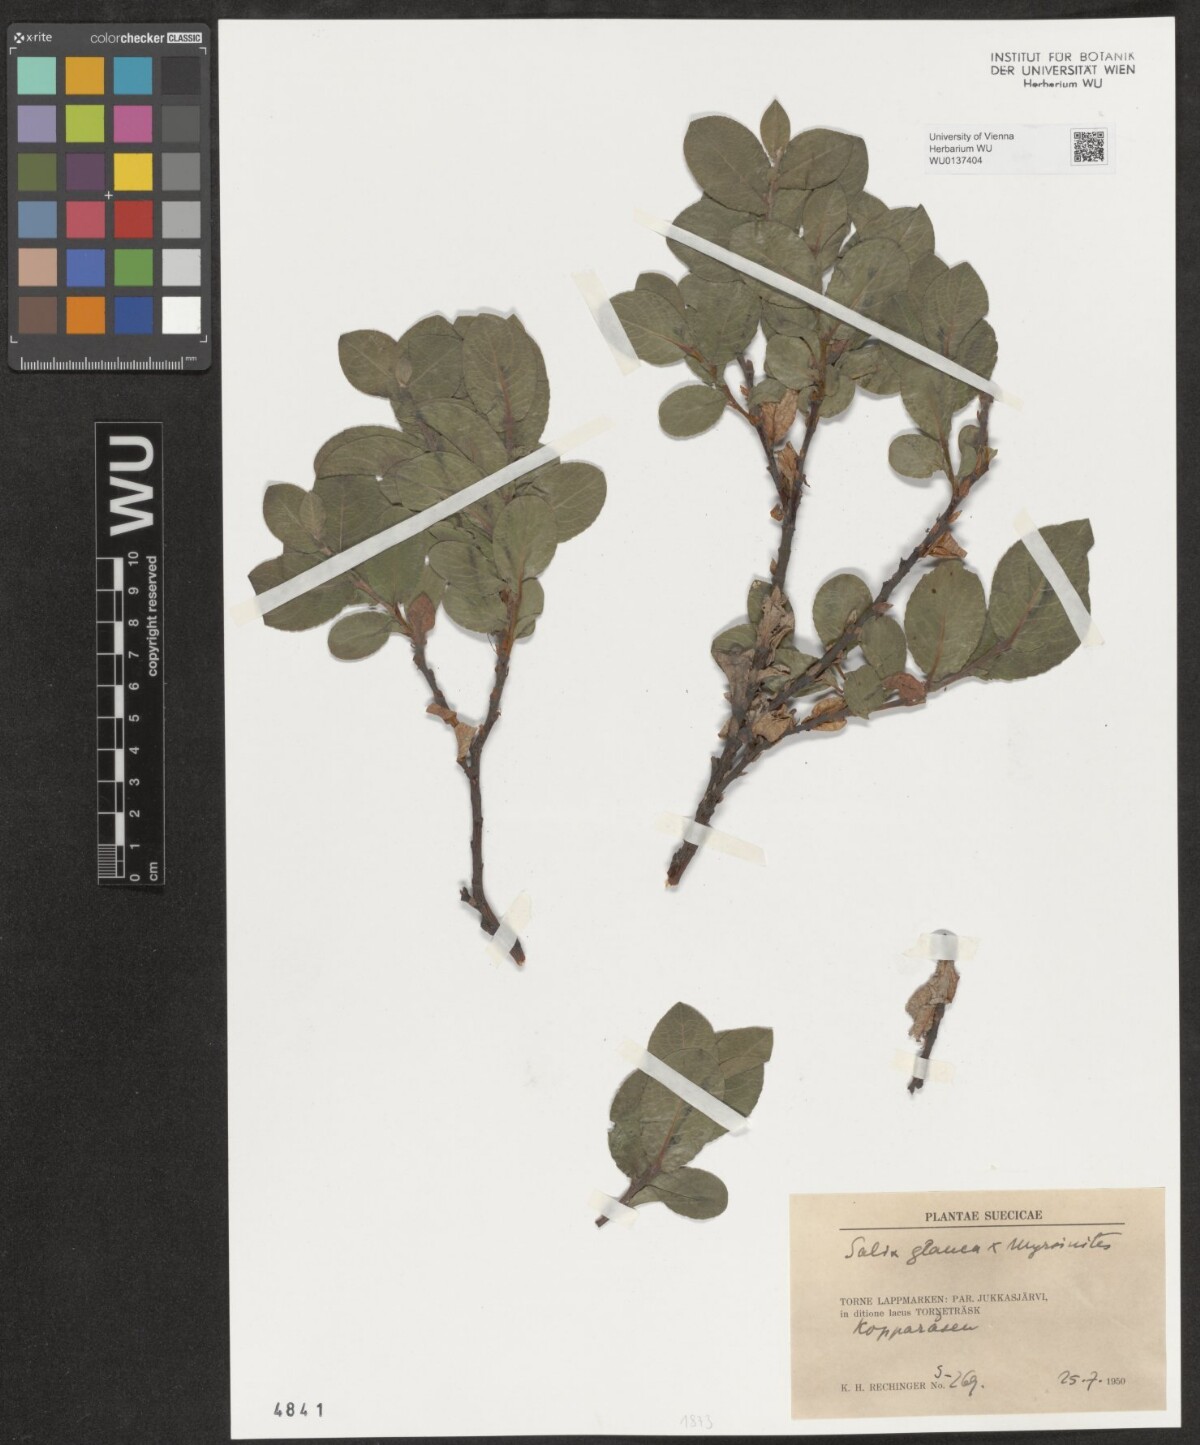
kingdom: Plantae
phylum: Tracheophyta
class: Magnoliopsida
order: Malpighiales
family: Salicaceae
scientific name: Salicaceae
